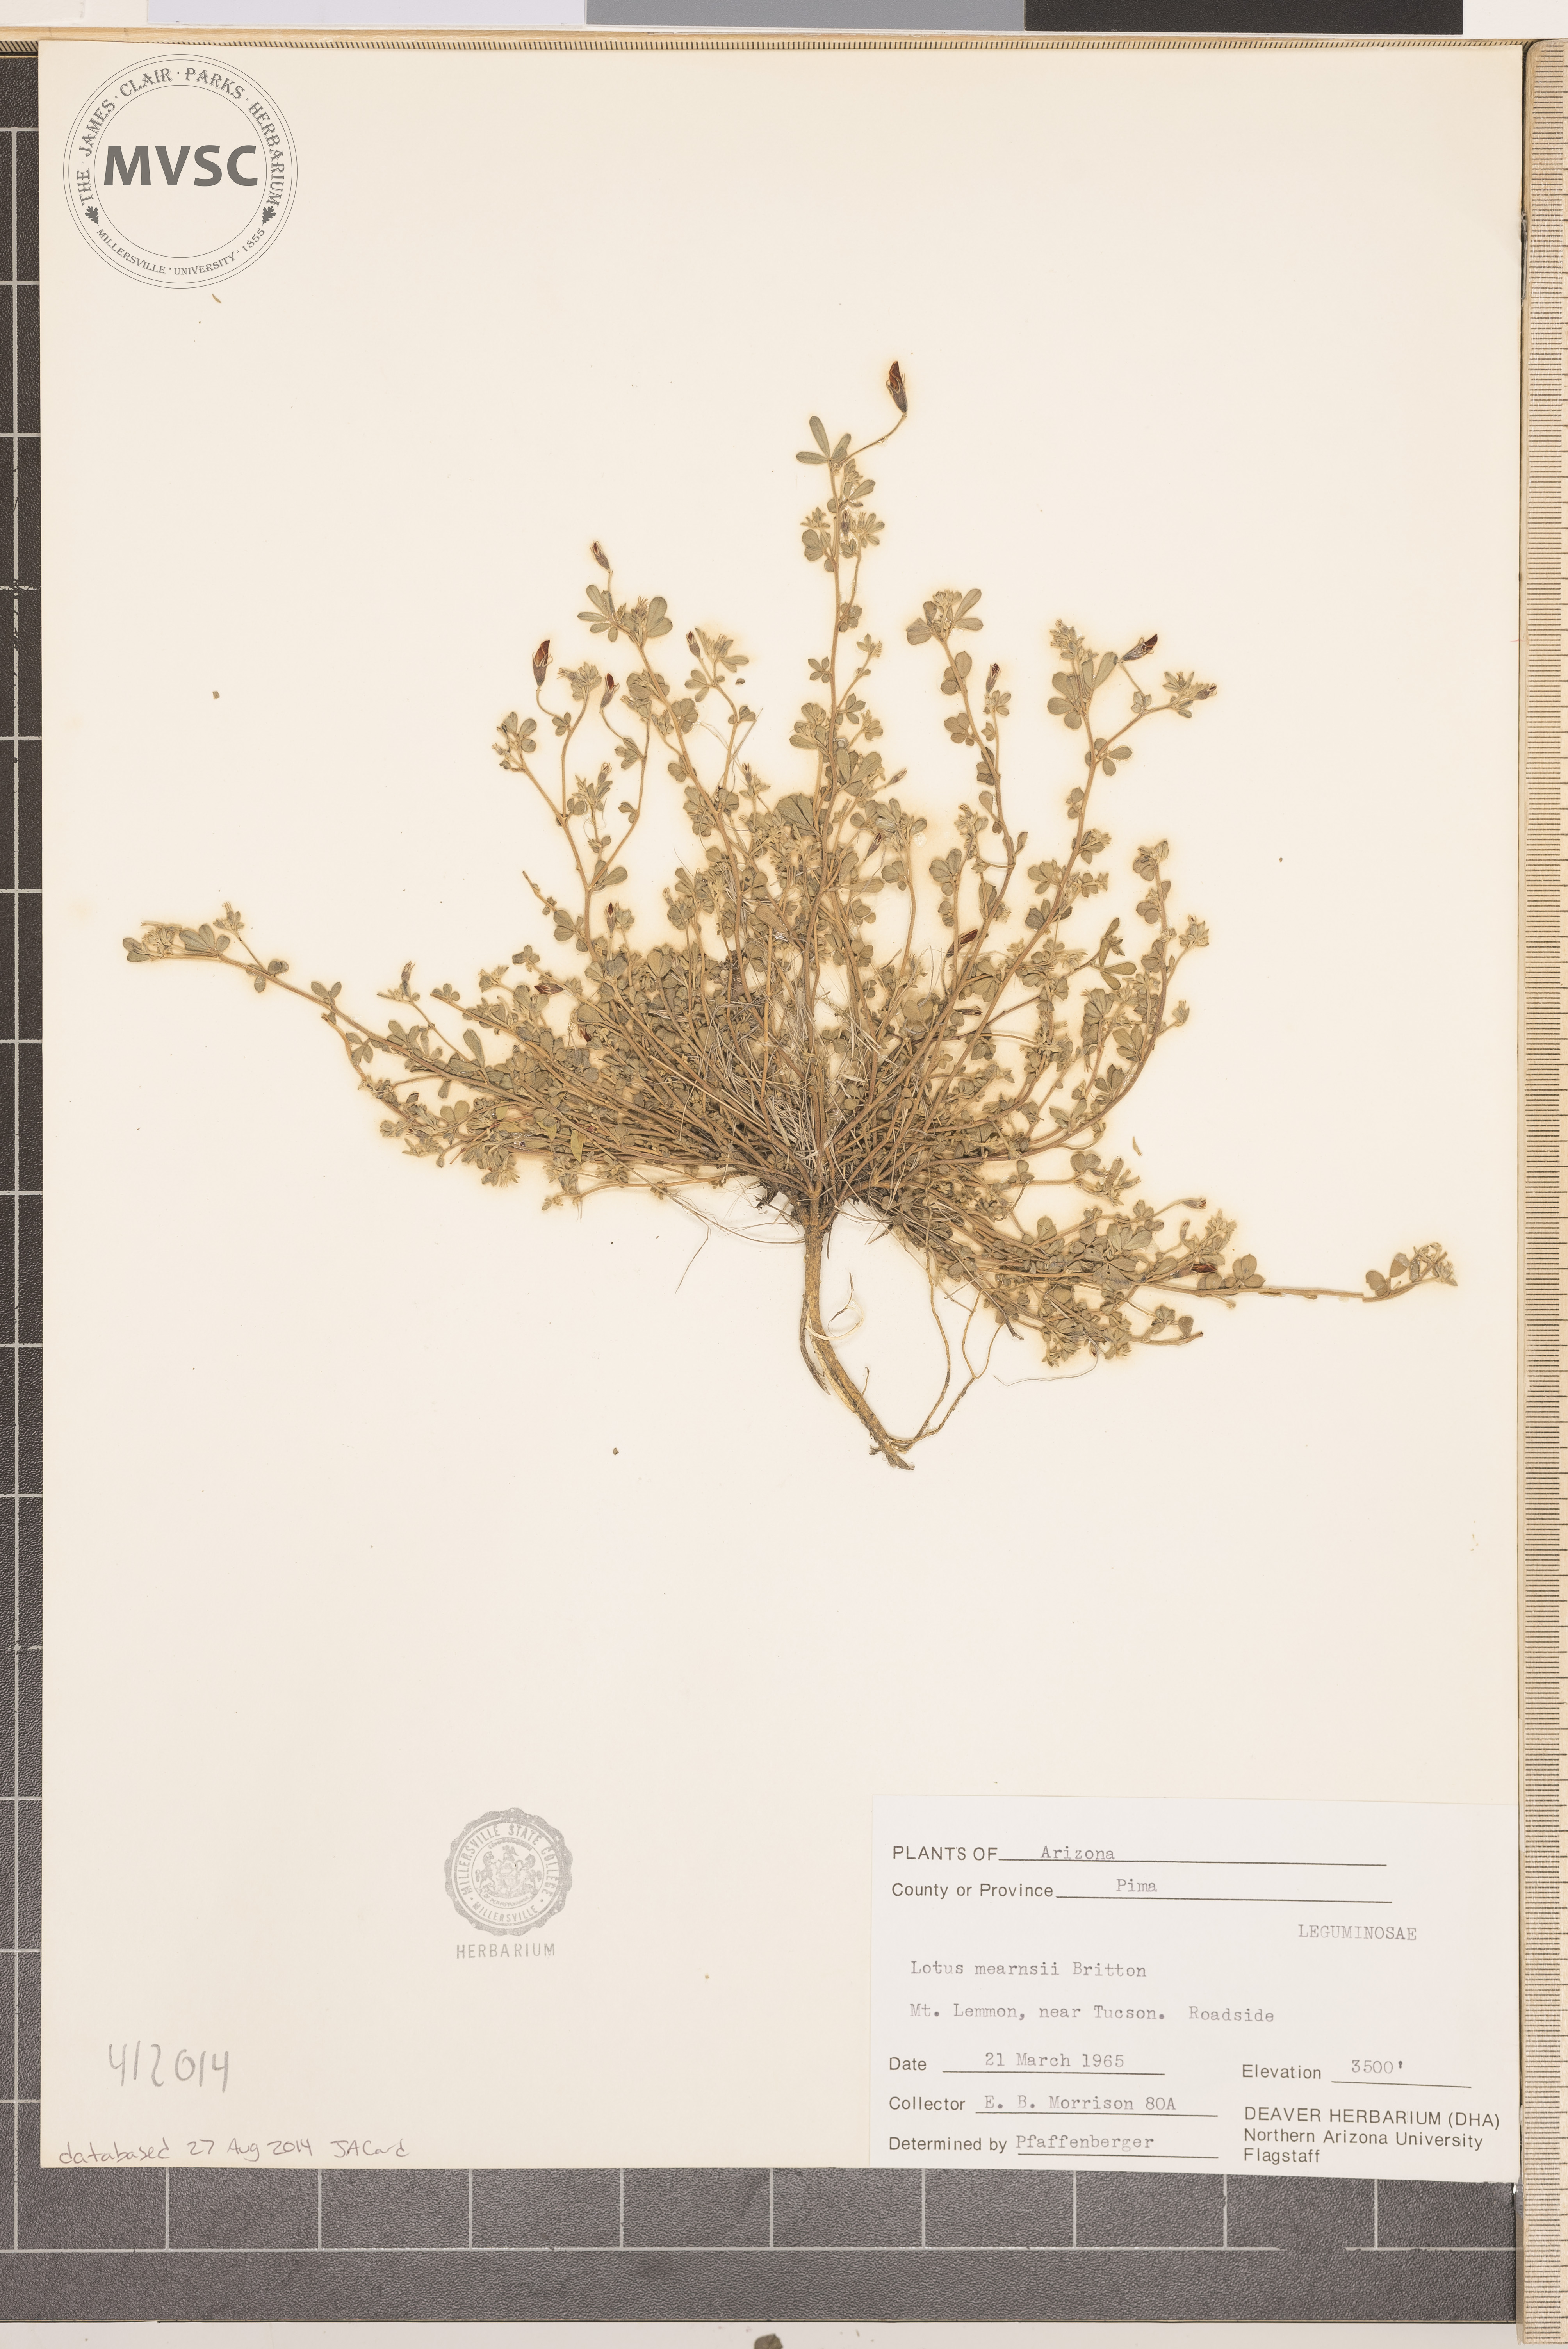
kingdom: Plantae
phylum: Tracheophyta
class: Magnoliopsida
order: Fabales
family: Fabaceae
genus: Acmispon
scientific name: Acmispon mearnsii
